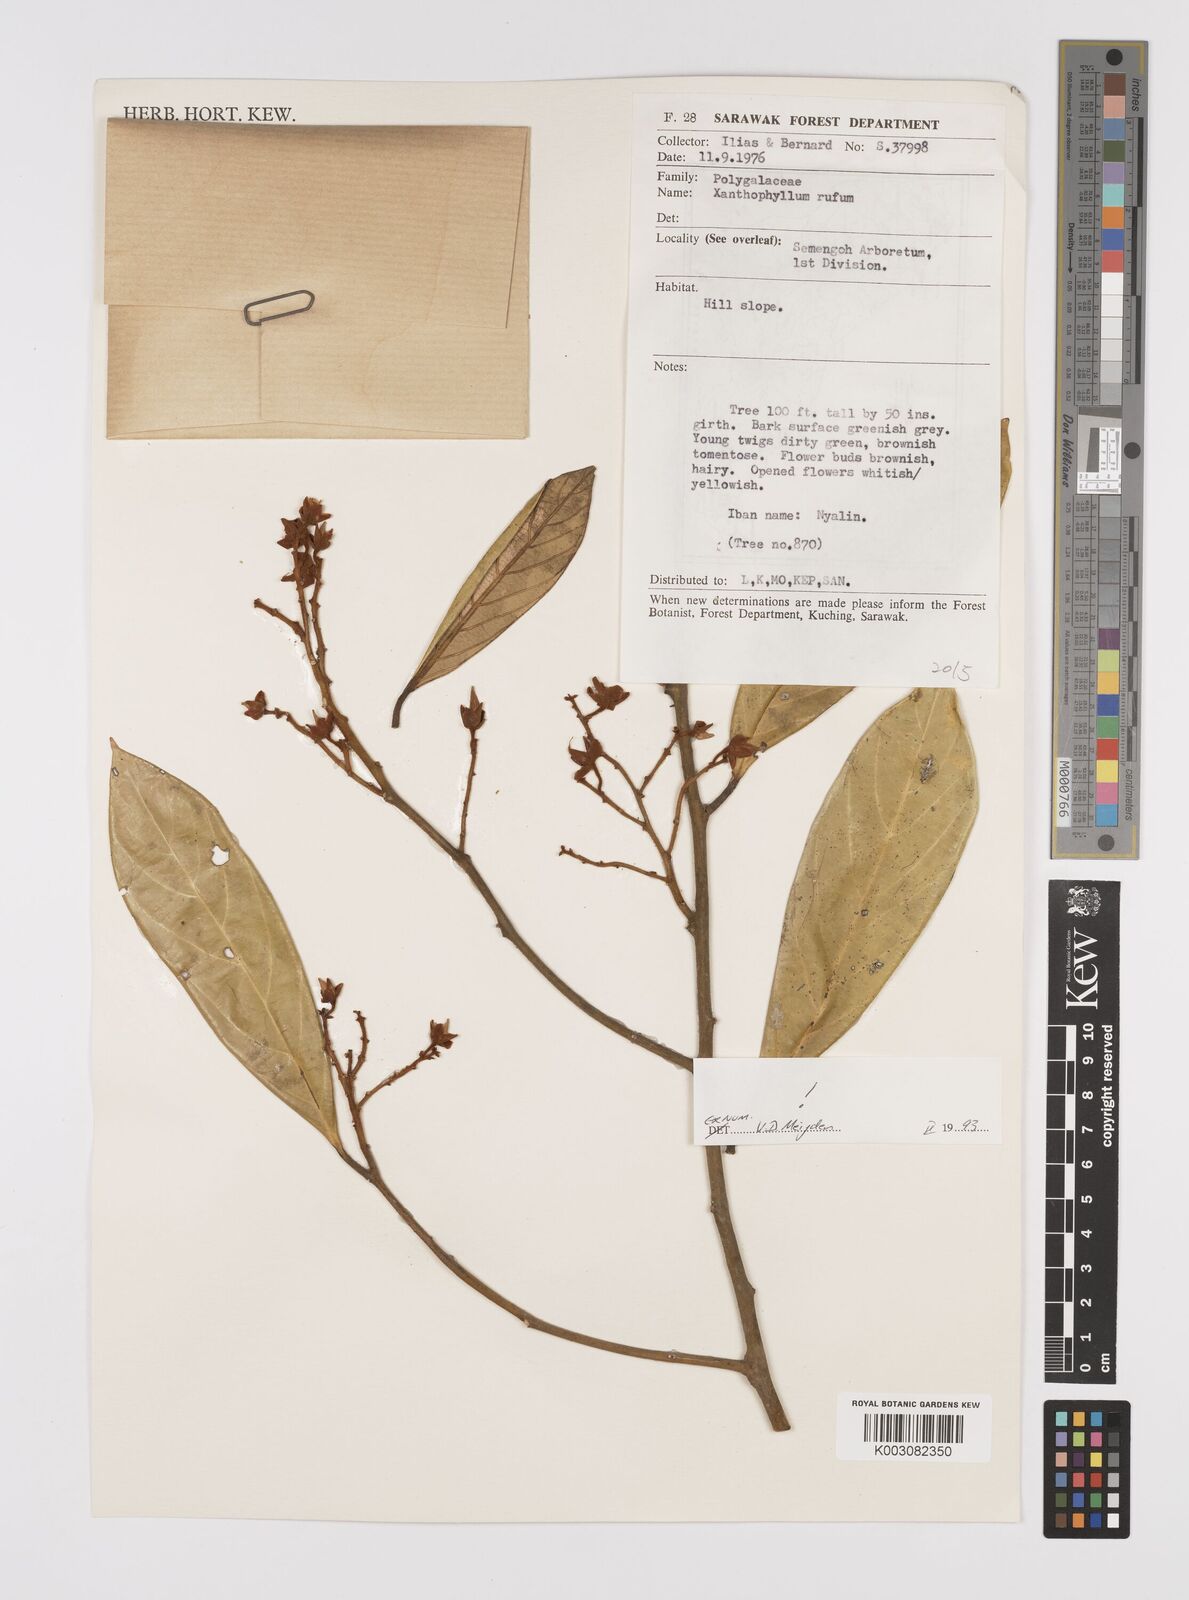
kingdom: Plantae
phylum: Tracheophyta
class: Magnoliopsida
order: Fabales
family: Polygalaceae
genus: Xanthophyllum
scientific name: Xanthophyllum rufum
